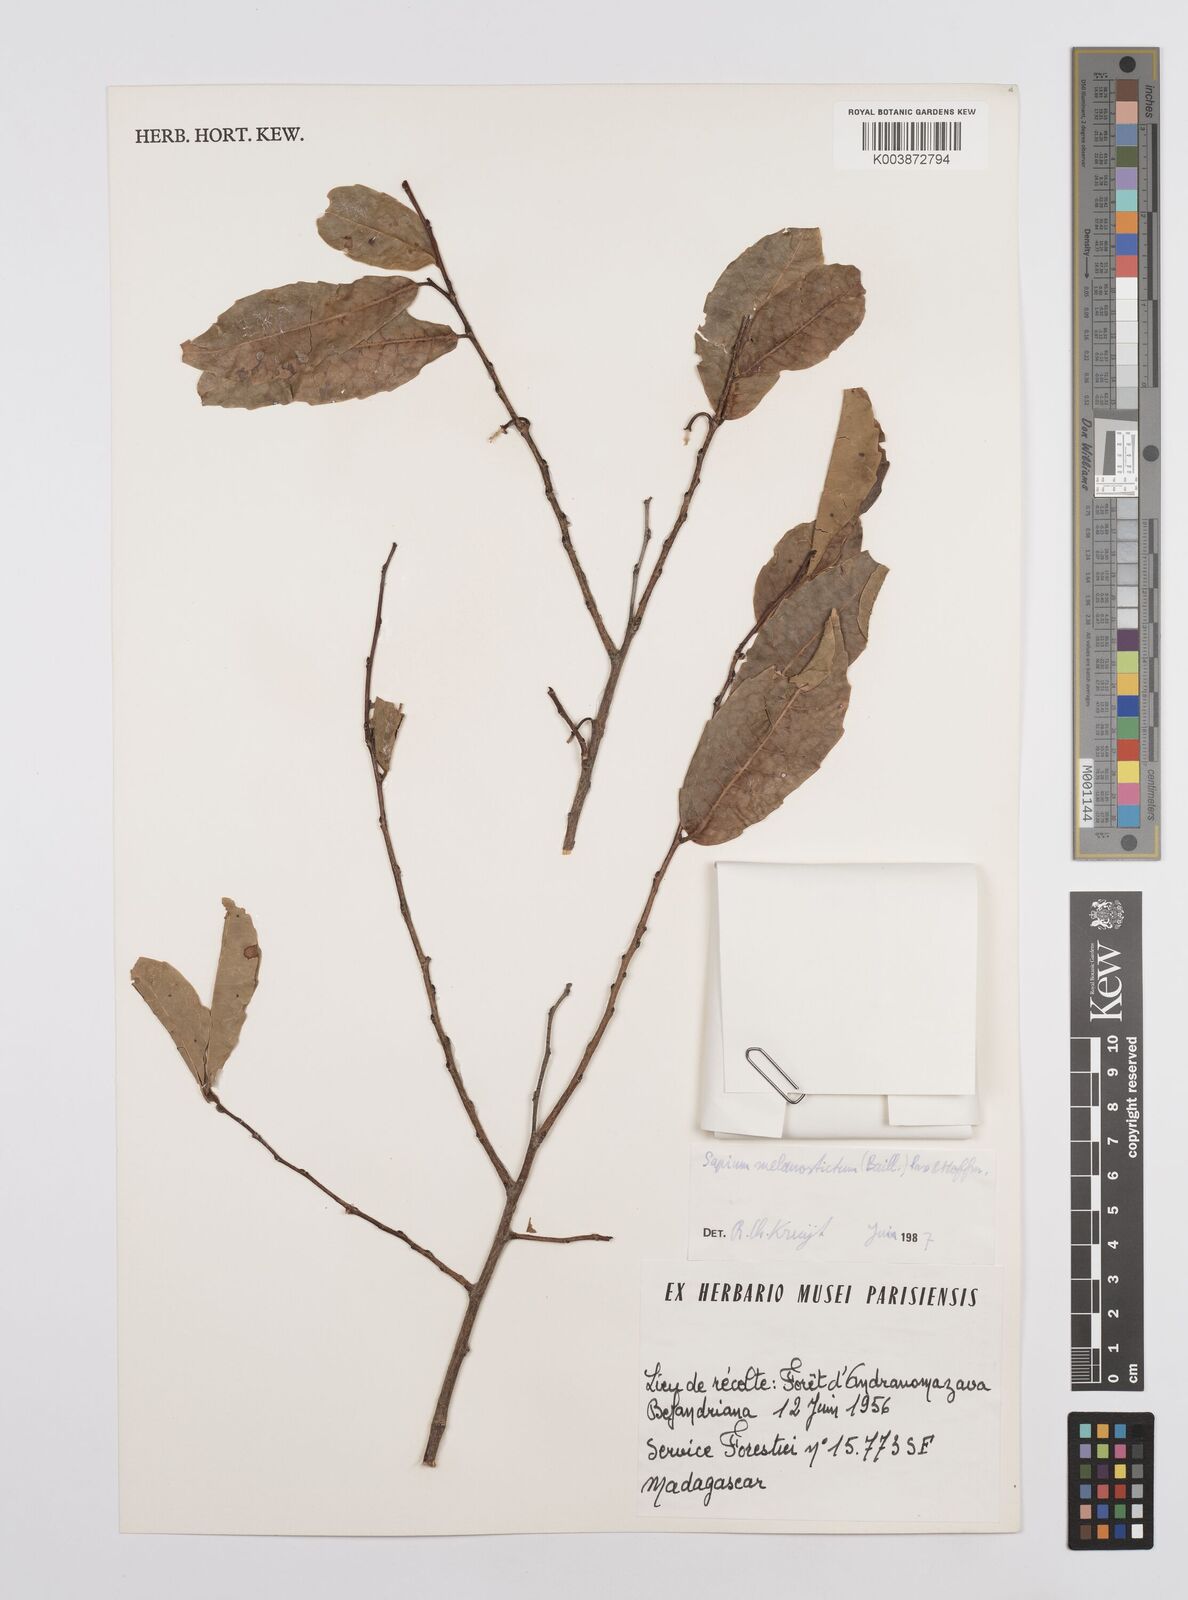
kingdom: Plantae
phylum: Tracheophyta
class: Magnoliopsida
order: Malpighiales
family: Euphorbiaceae
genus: Sclerocroton
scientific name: Sclerocroton melanostictus
